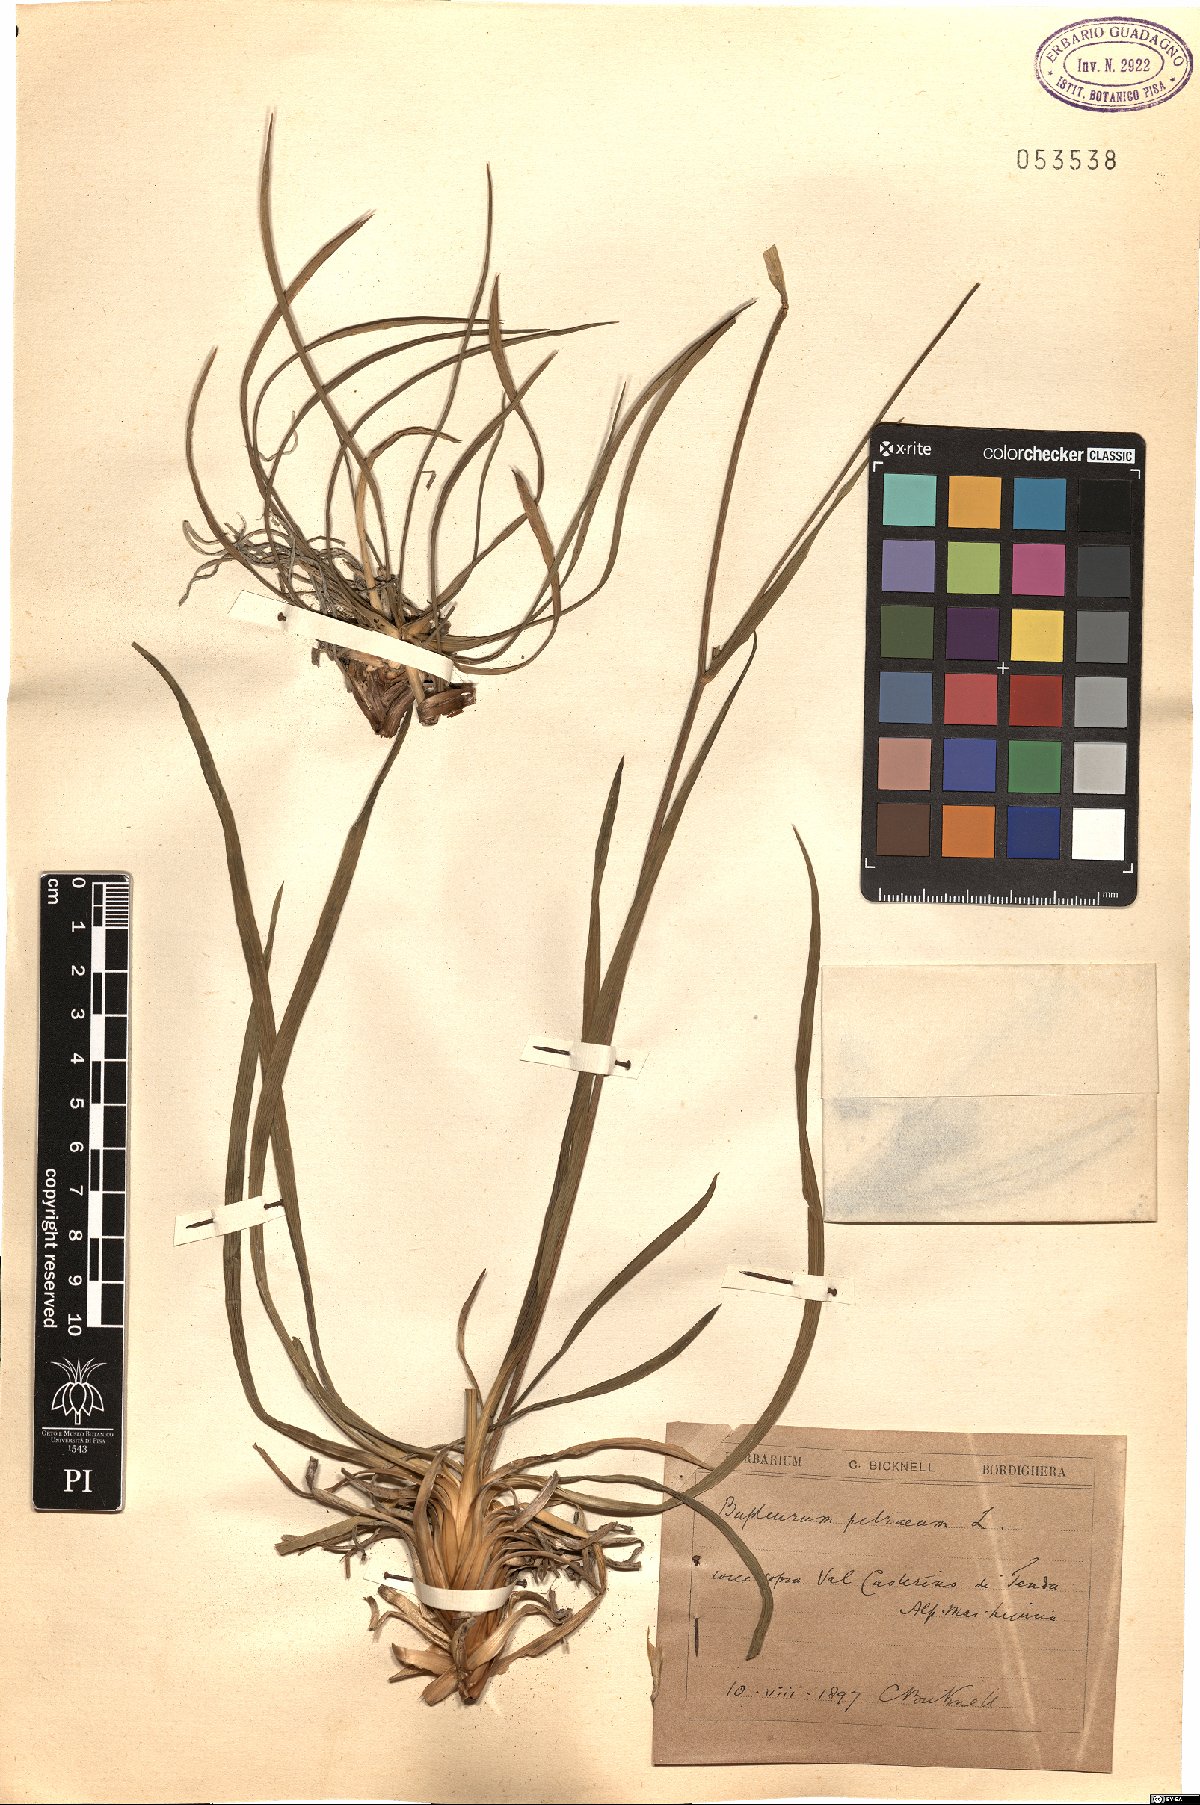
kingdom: Plantae
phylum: Tracheophyta
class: Magnoliopsida
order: Apiales
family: Apiaceae
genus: Bupleurum
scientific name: Bupleurum petraeum
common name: Rock hare's-ear
